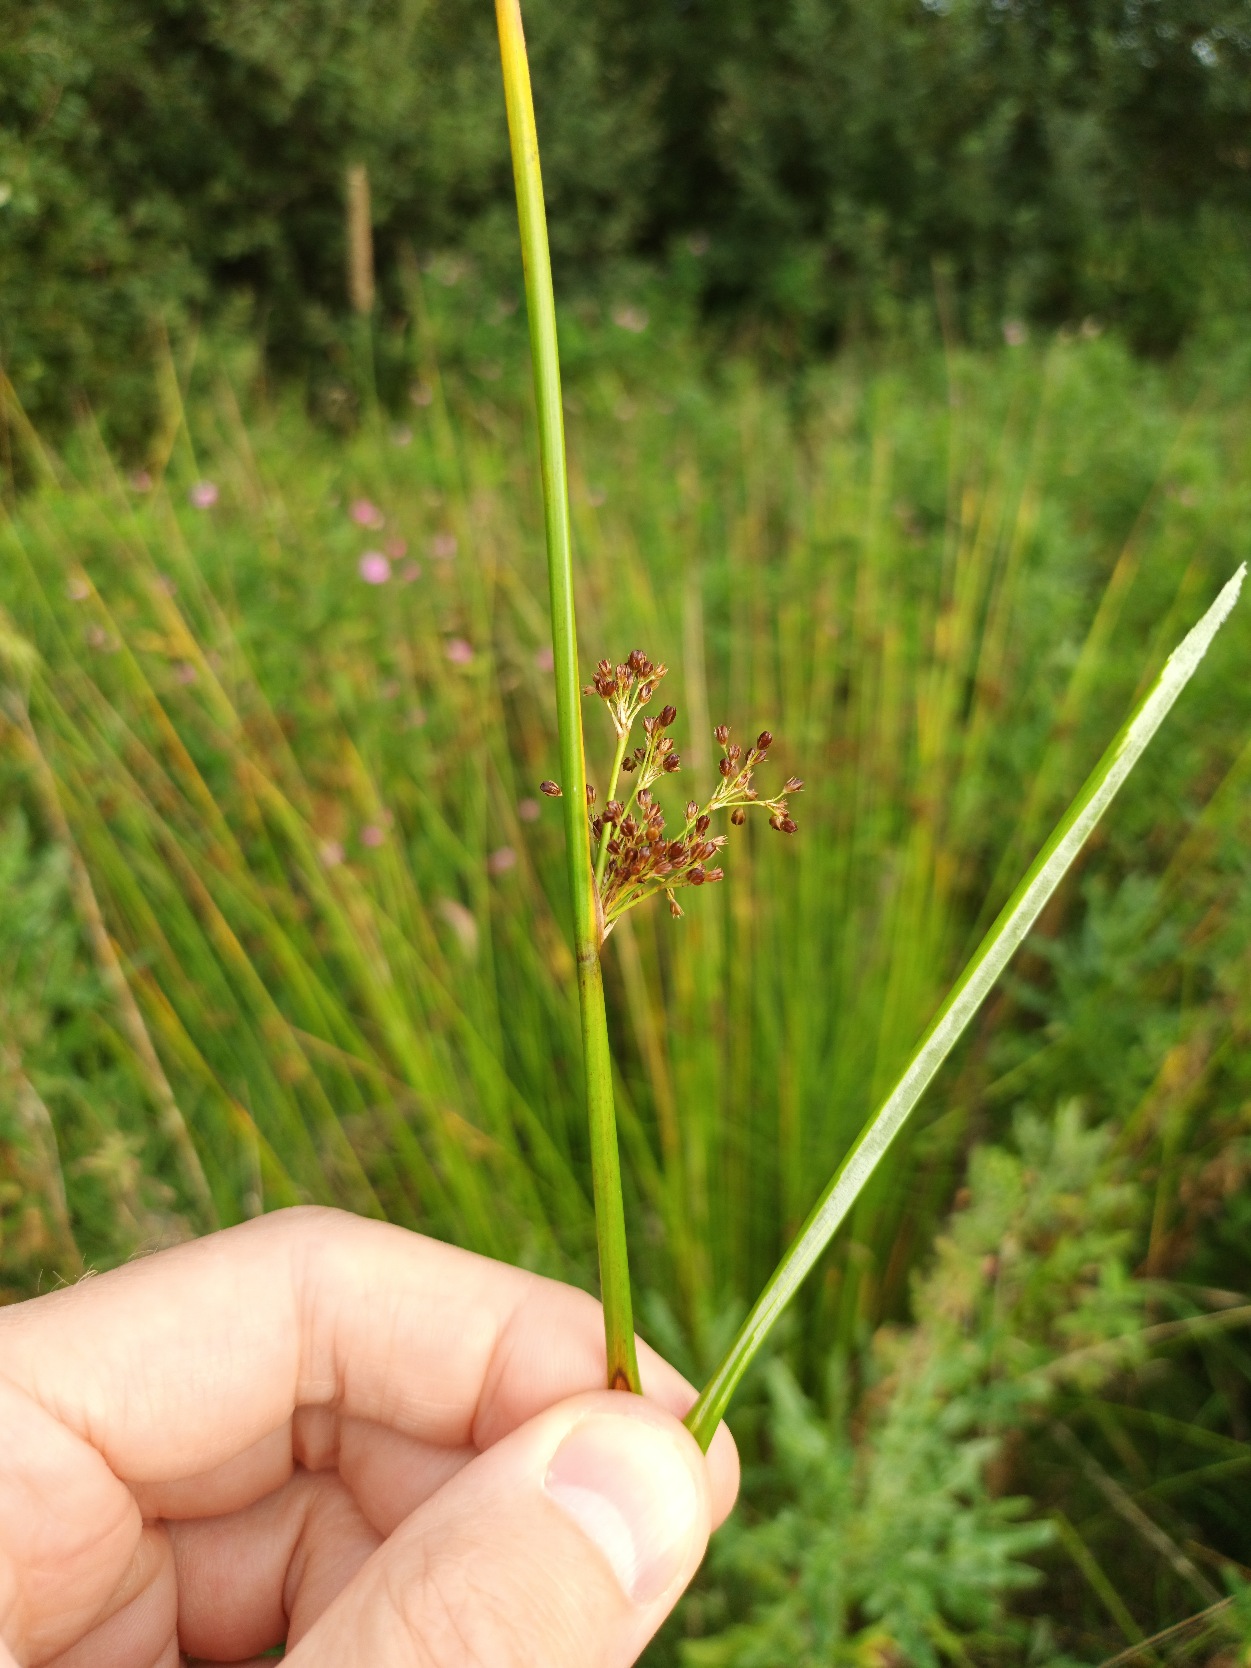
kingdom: Plantae
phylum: Tracheophyta
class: Liliopsida
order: Poales
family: Juncaceae
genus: Juncus
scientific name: Juncus effusus
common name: Lyse-siv
